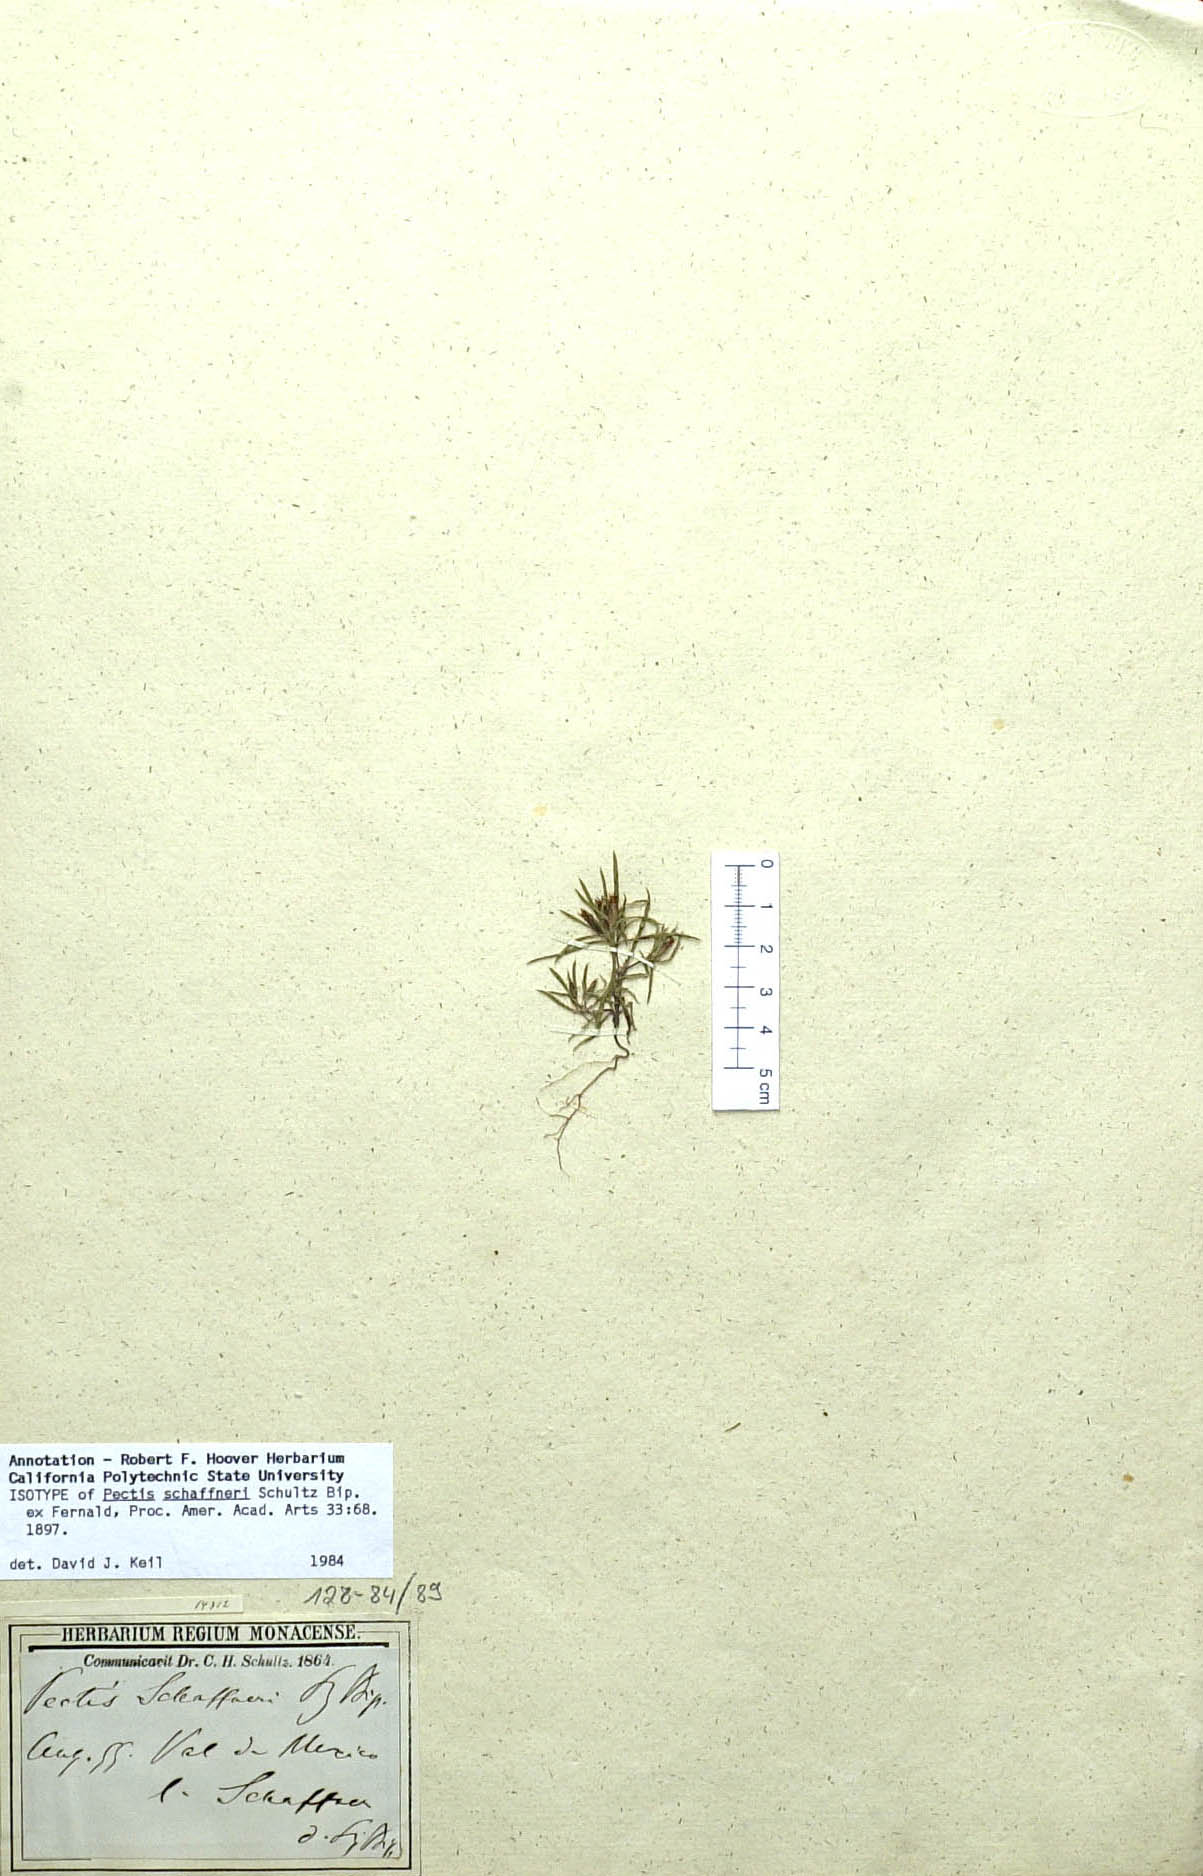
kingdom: Plantae
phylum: Tracheophyta
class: Magnoliopsida
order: Asterales
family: Asteraceae
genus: Pectis
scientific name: Pectis schaffneri
